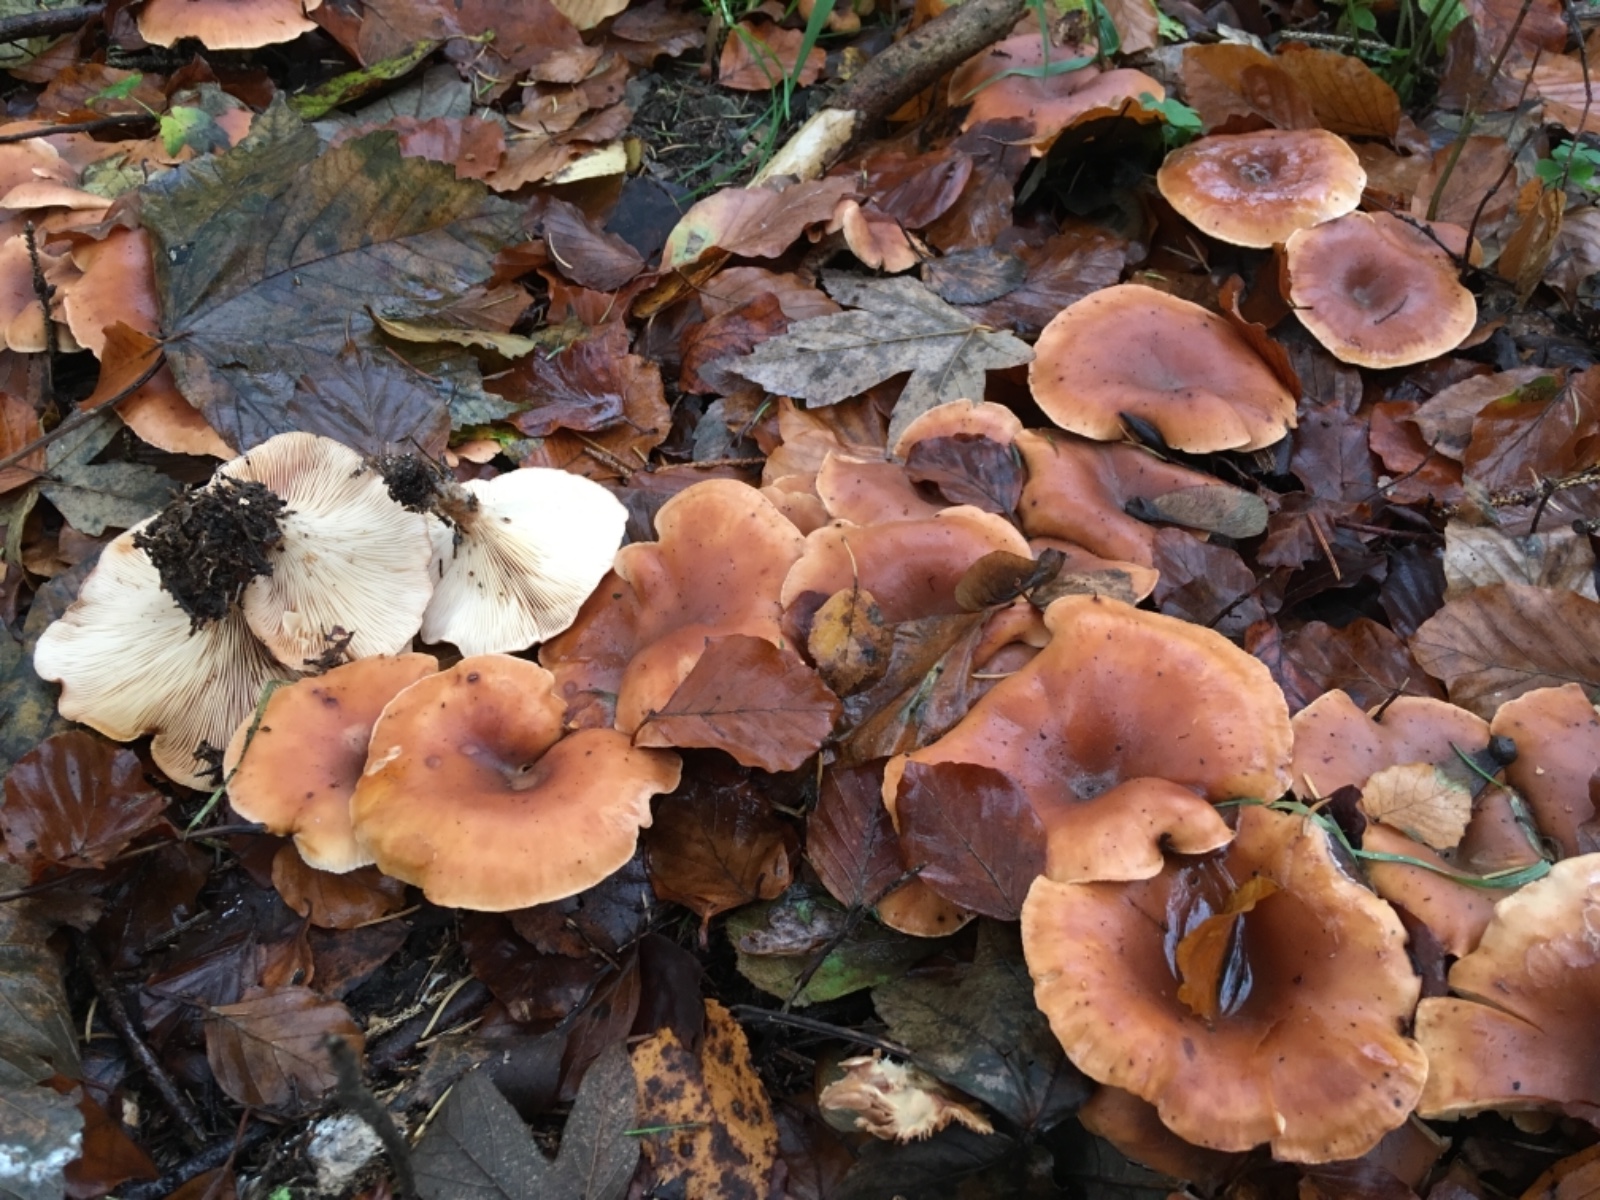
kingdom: Fungi
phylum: Basidiomycota
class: Agaricomycetes
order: Agaricales
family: Tricholomataceae
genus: Paralepista
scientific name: Paralepista flaccida
